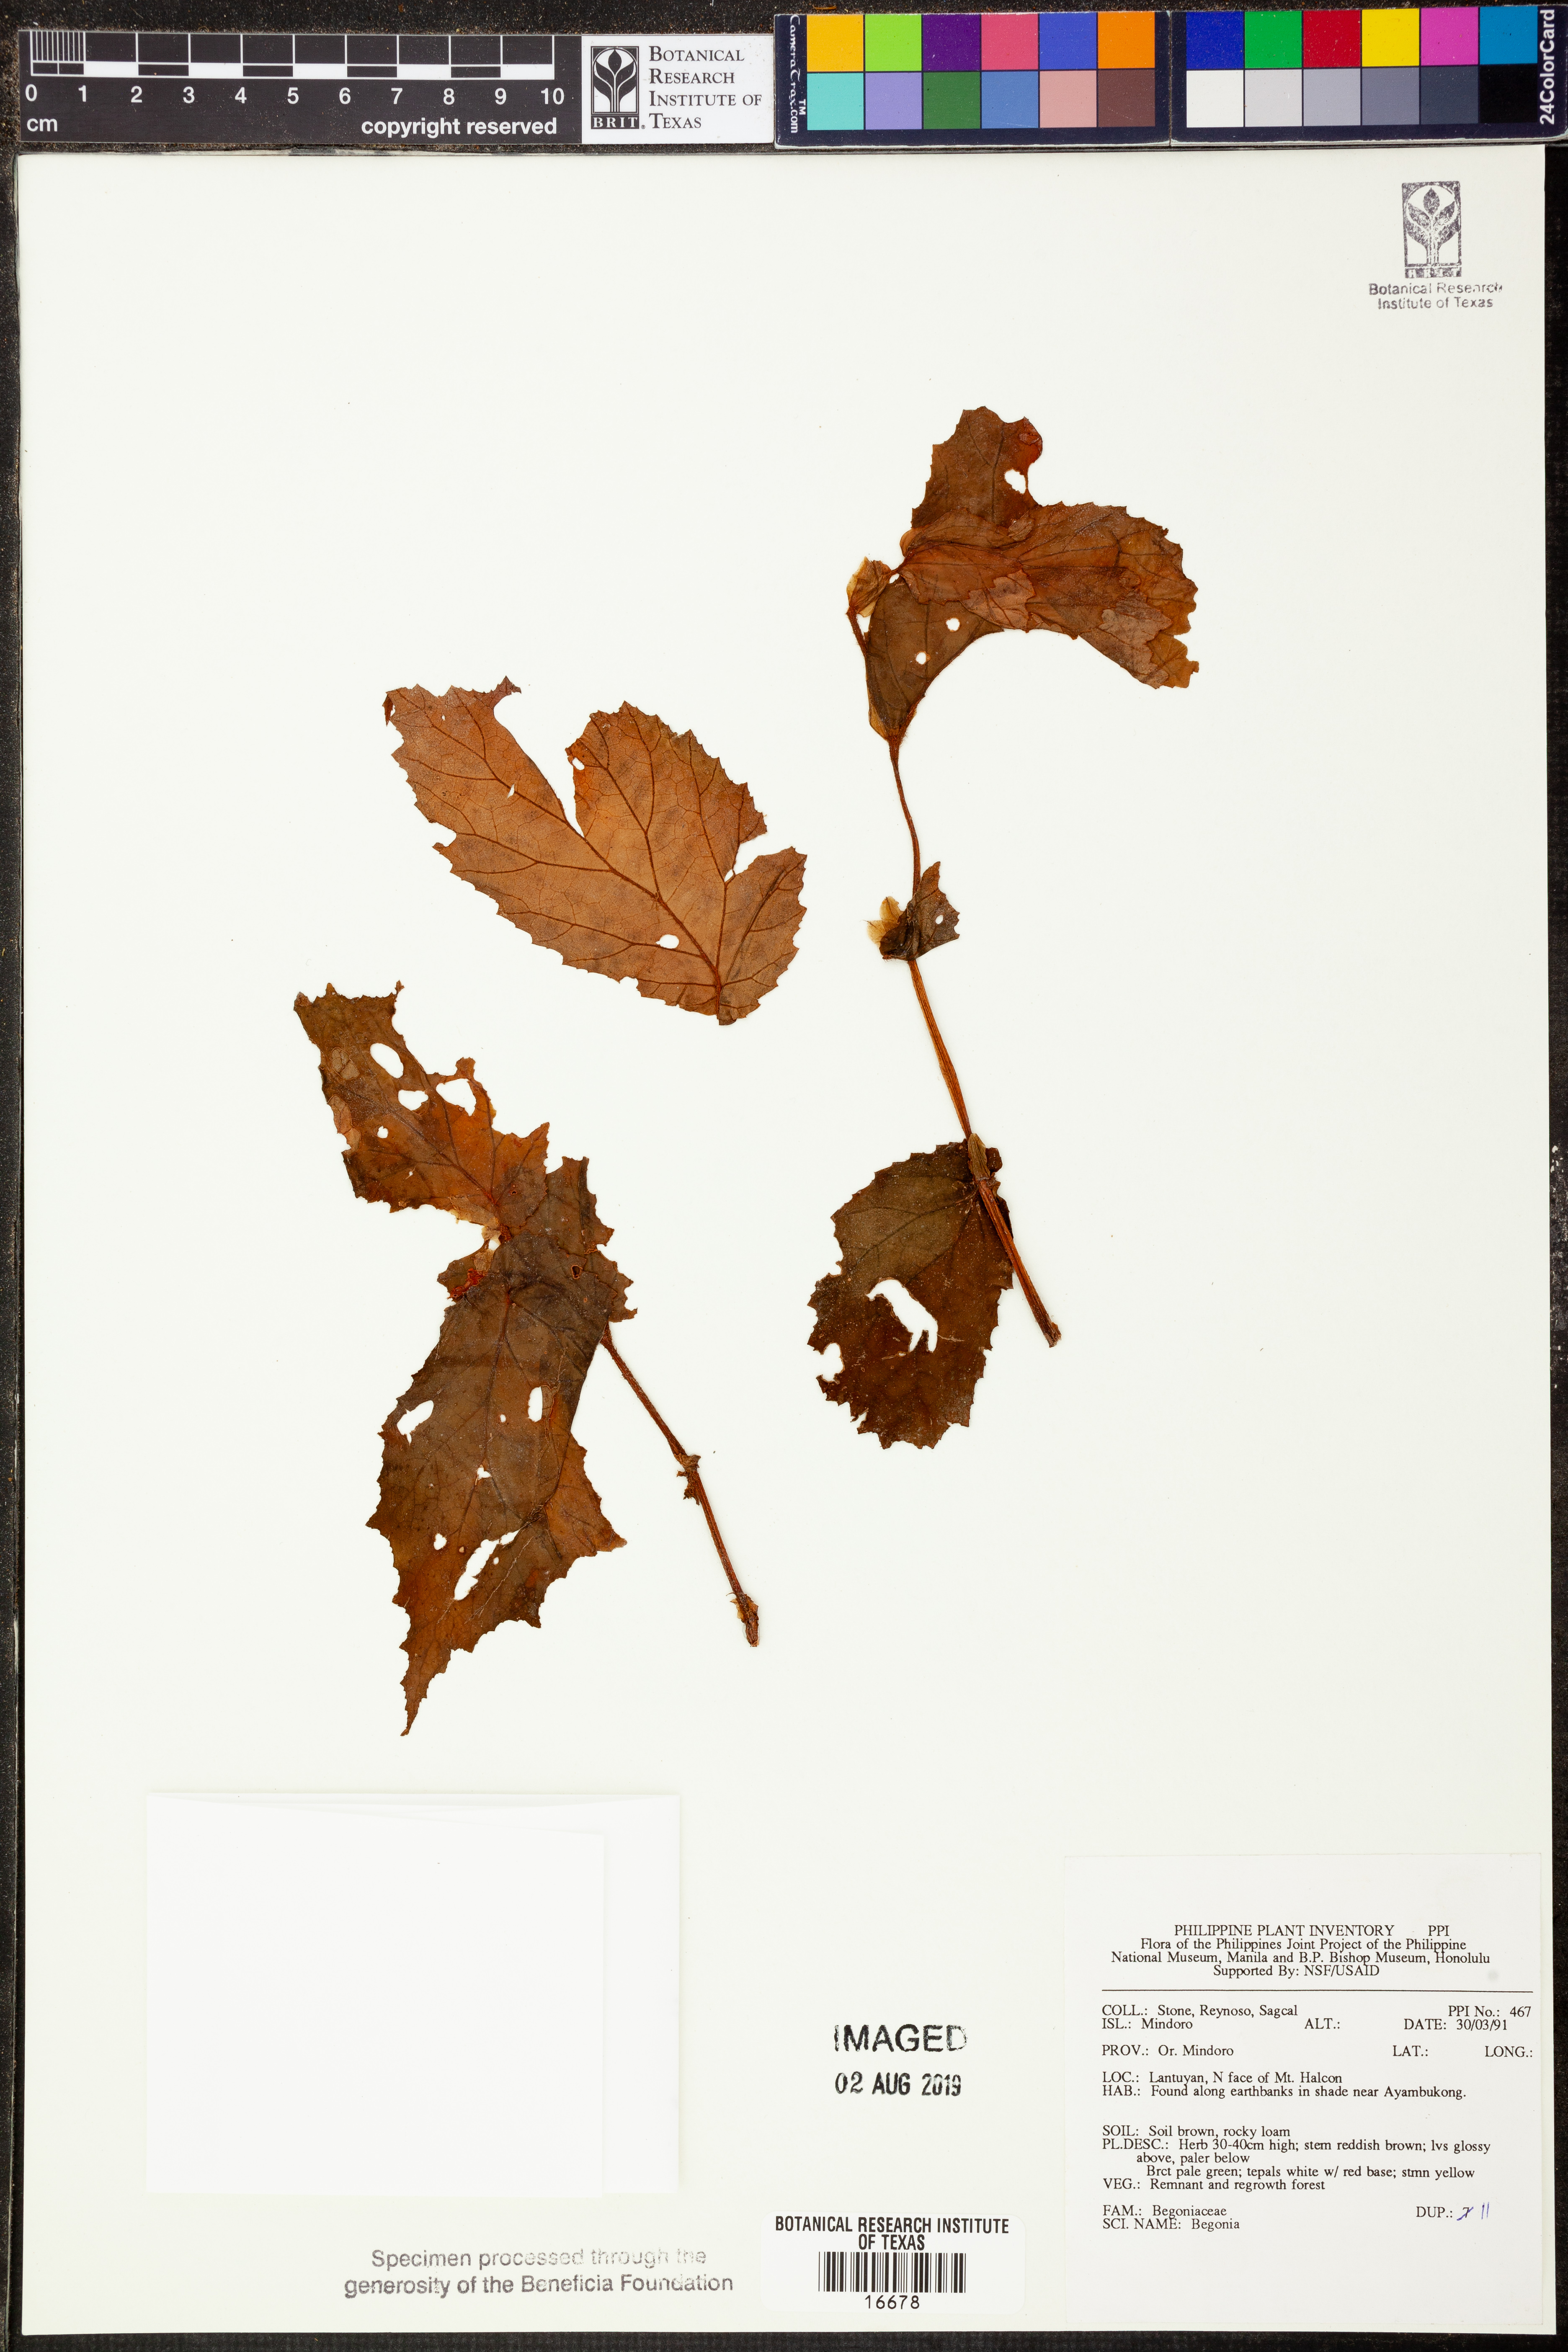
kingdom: Plantae
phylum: Tracheophyta
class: Magnoliopsida
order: Cucurbitales
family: Begoniaceae
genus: Begonia
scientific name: Begonia
